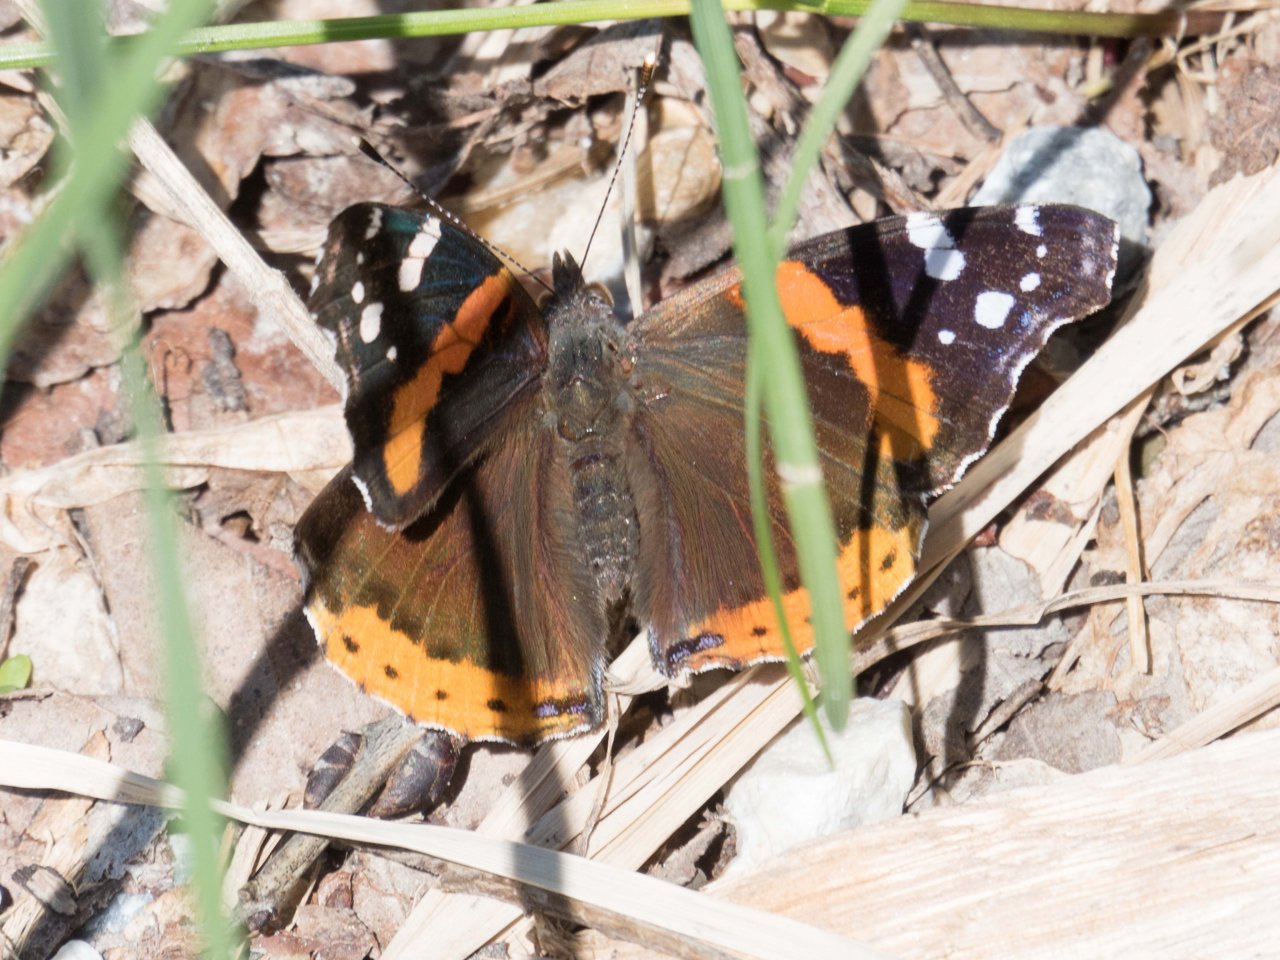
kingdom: Animalia
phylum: Arthropoda
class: Insecta
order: Lepidoptera
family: Nymphalidae
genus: Vanessa
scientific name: Vanessa atalanta
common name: Red Admiral
